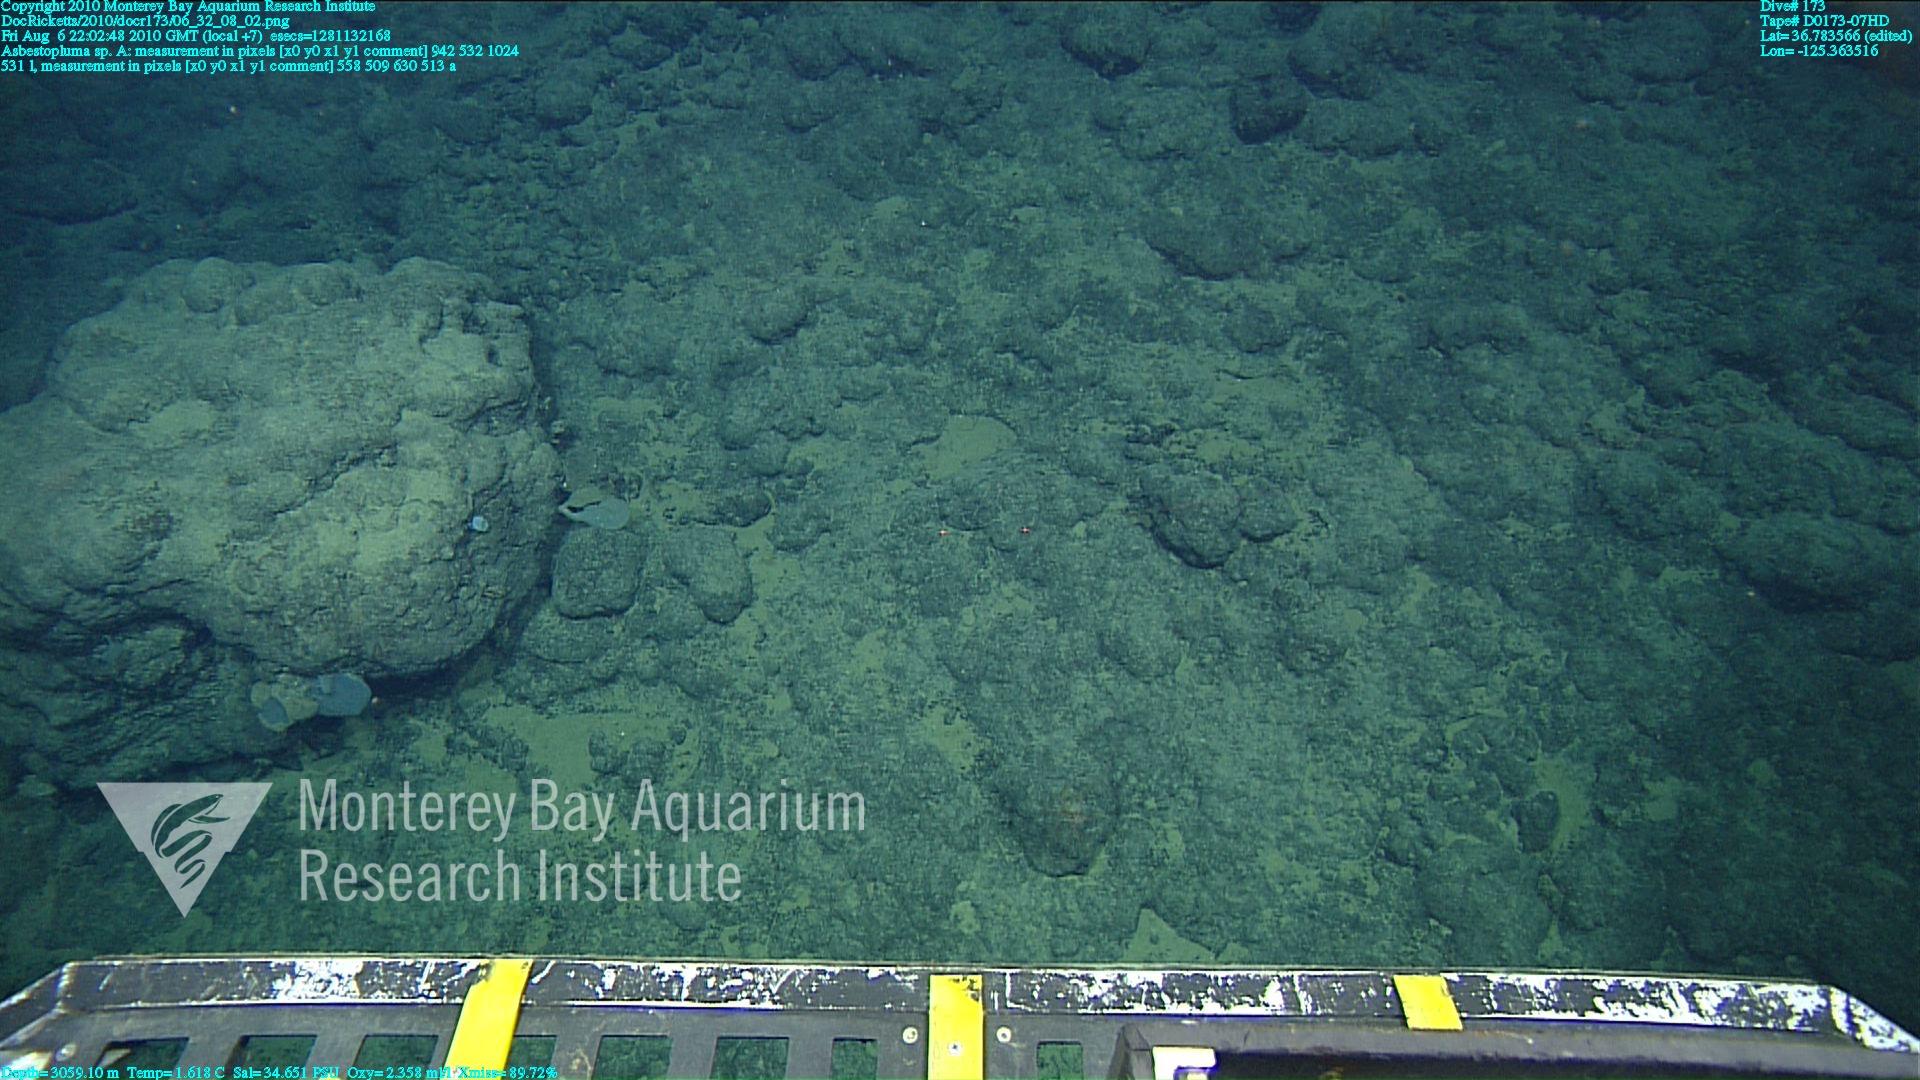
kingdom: Animalia
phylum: Porifera
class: Demospongiae
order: Poecilosclerida
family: Cladorhizidae
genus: Asbestopluma
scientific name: Asbestopluma
